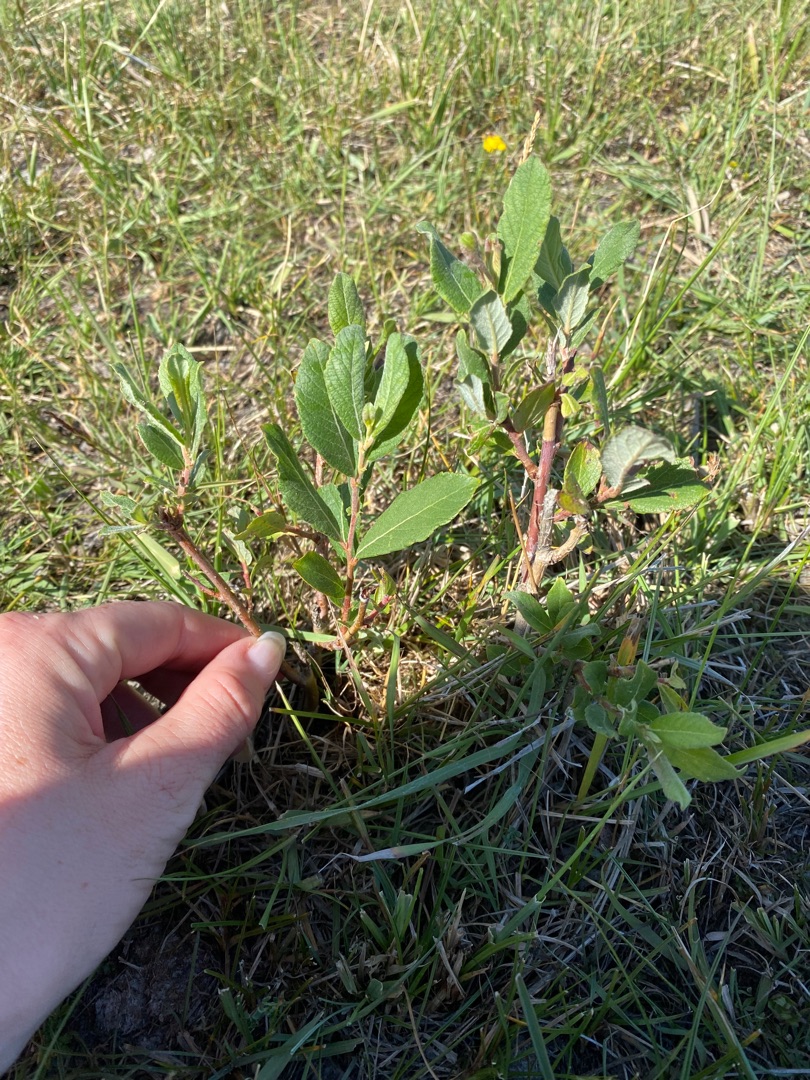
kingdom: Plantae
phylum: Tracheophyta
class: Magnoliopsida
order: Malpighiales
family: Salicaceae
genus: Salix
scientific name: Salix cinerea
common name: Grå-pil
